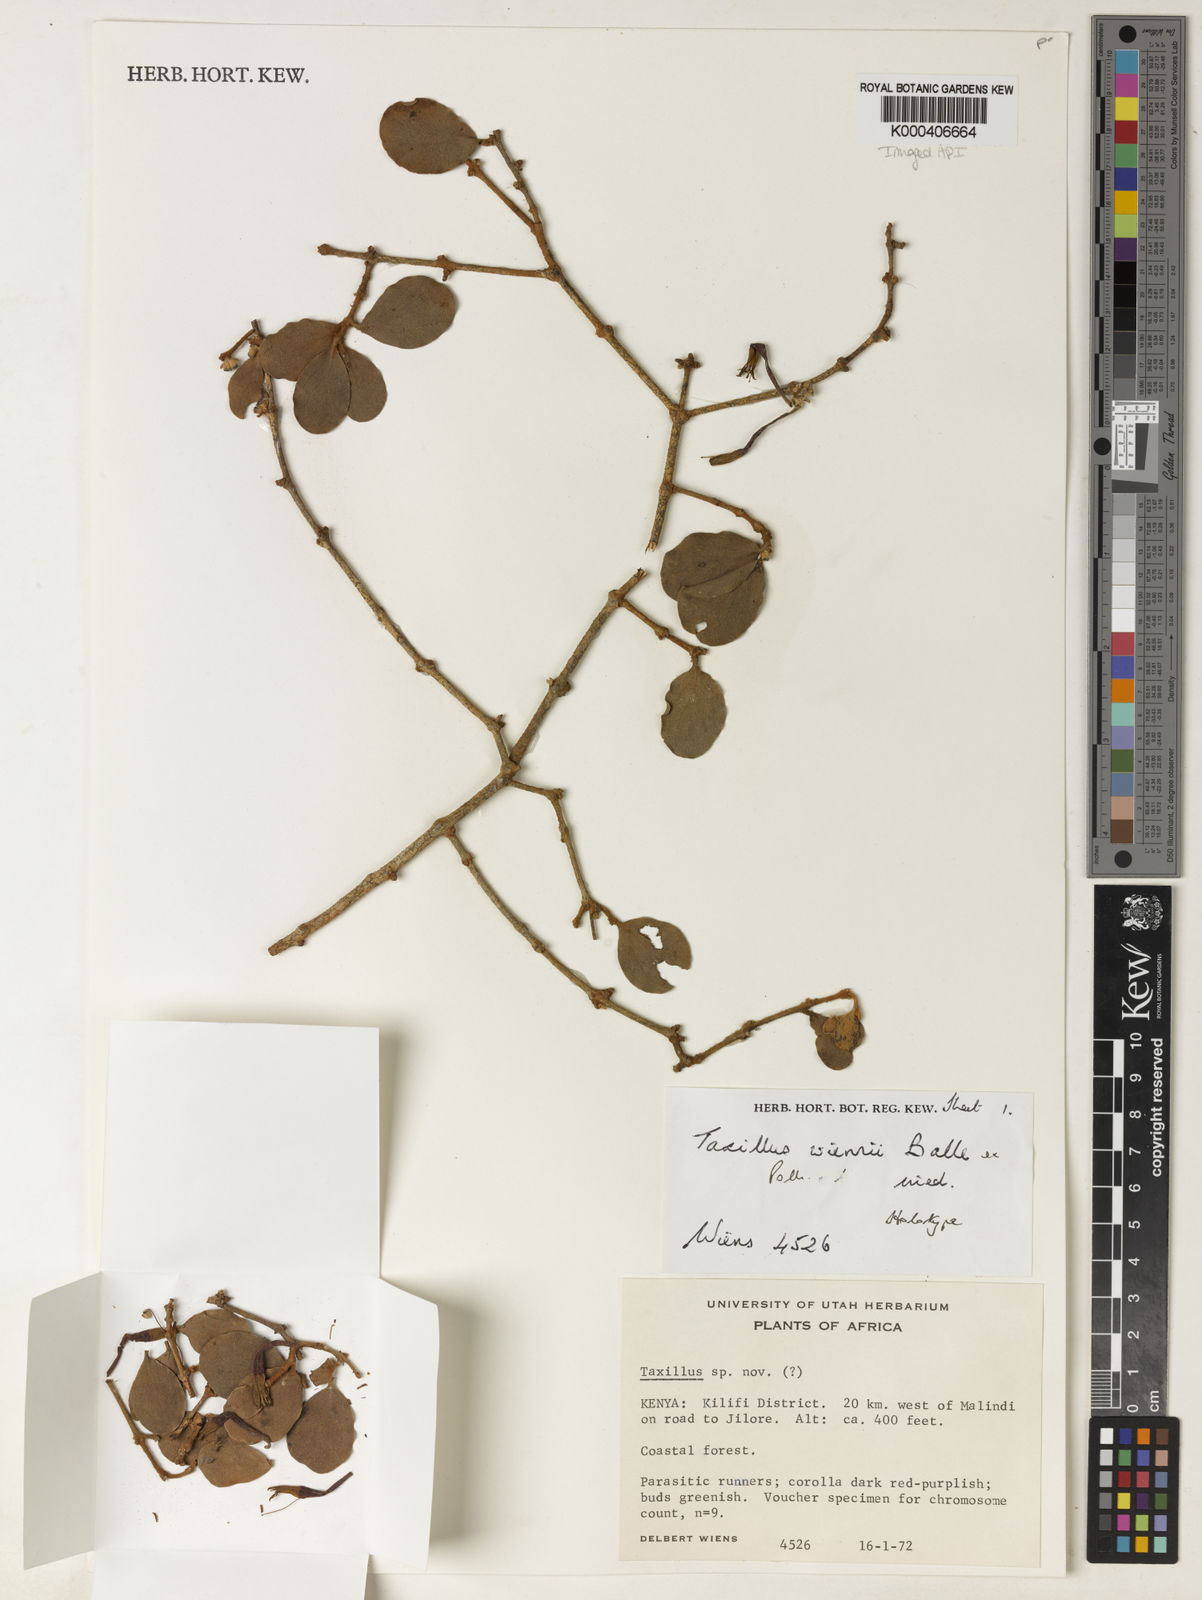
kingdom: Plantae
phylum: Tracheophyta
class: Magnoliopsida
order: Santalales
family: Loranthaceae
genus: Taxillus
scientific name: Taxillus wiensii
